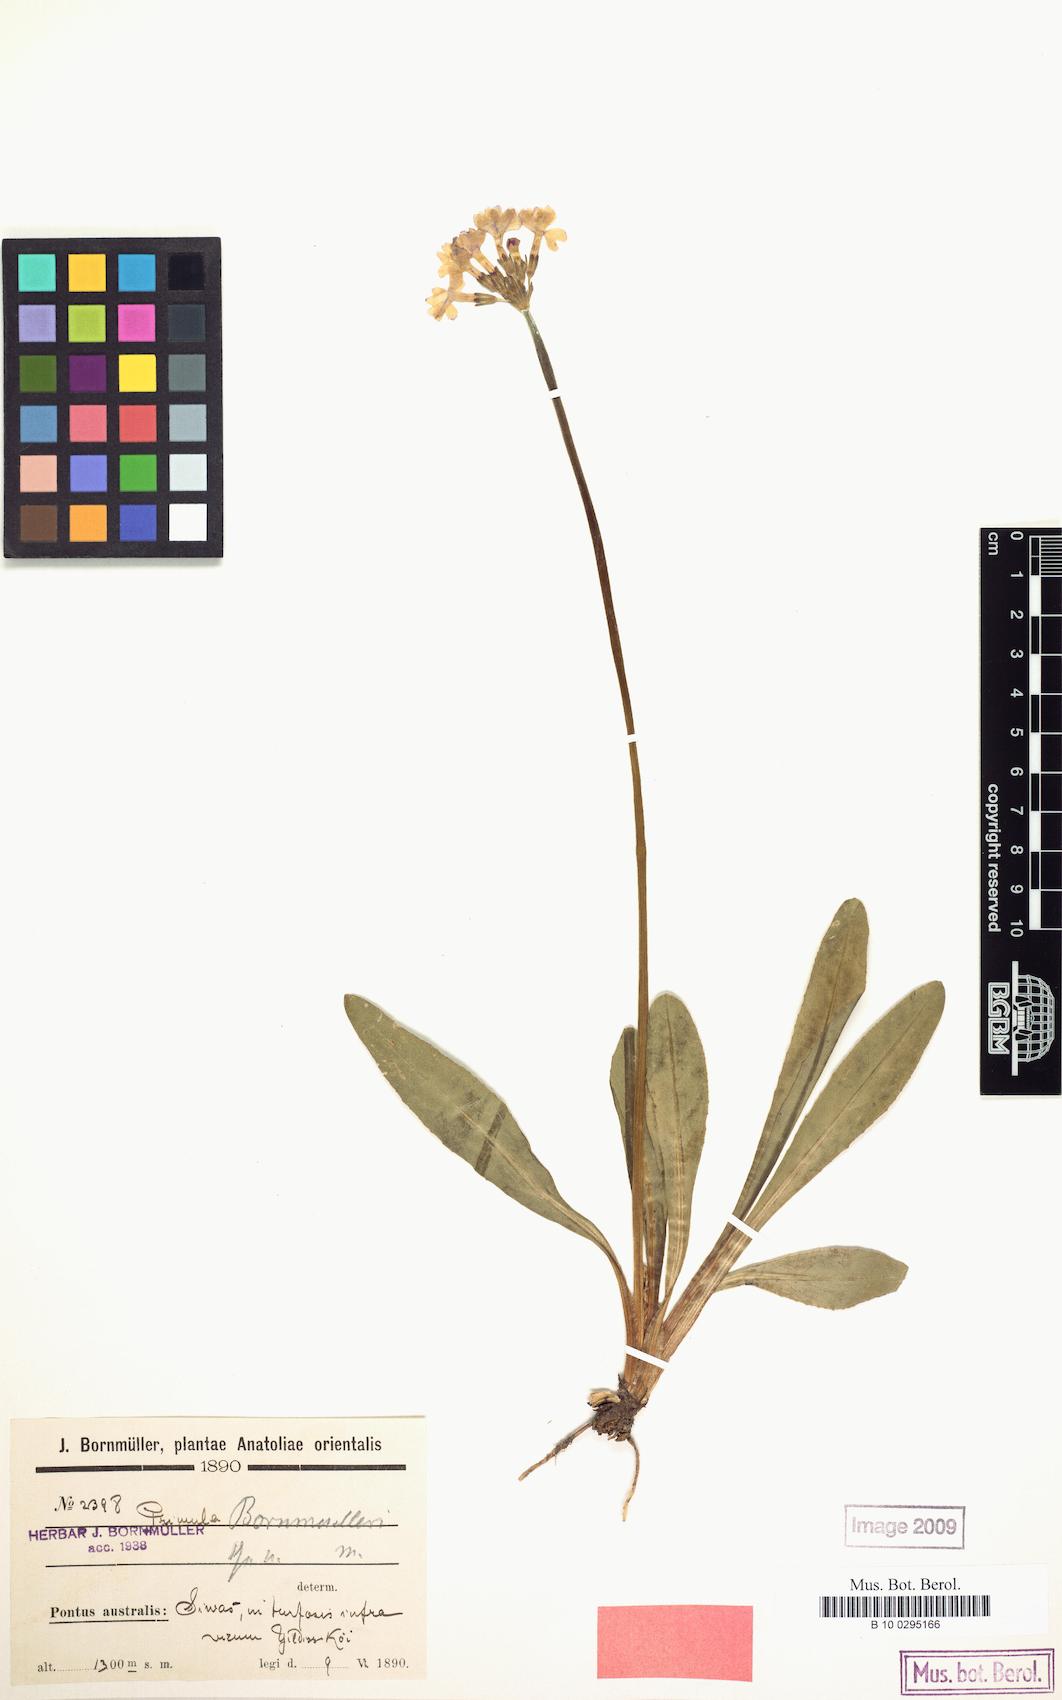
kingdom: Plantae
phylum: Tracheophyta
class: Magnoliopsida
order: Ericales
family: Primulaceae
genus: Primula
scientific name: Primula auriculata
